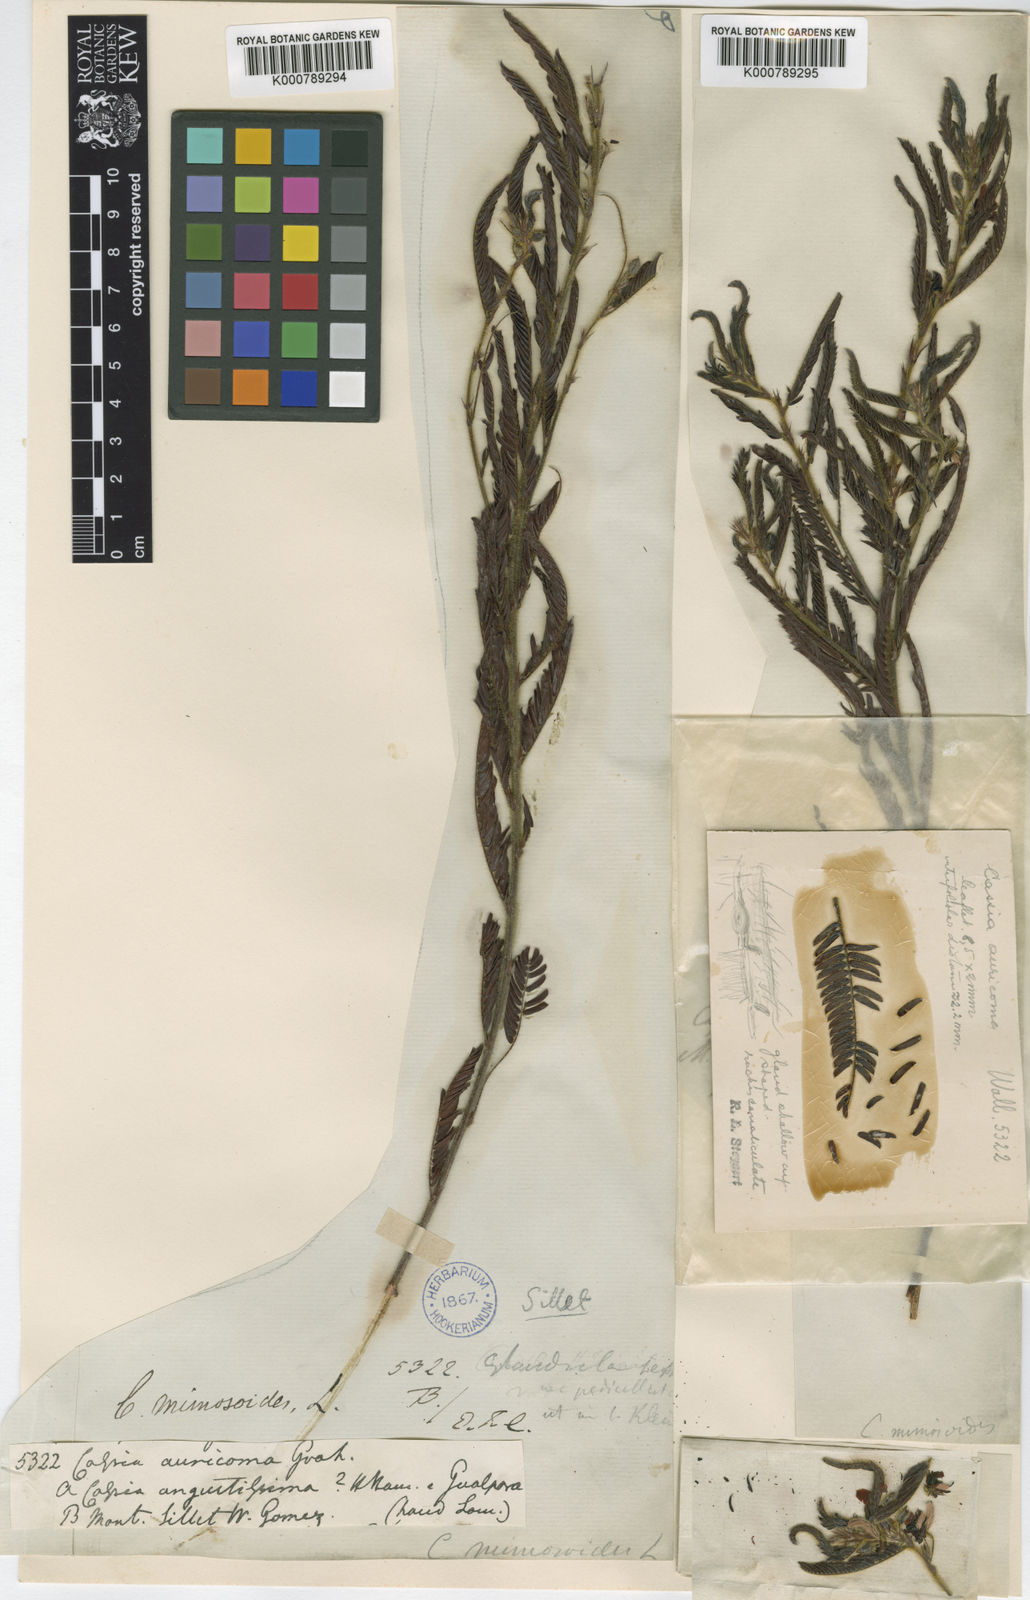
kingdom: Plantae
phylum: Tracheophyta
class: Magnoliopsida
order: Fabales
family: Fabaceae
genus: Chamaecrista
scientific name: Chamaecrista mimosoides
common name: Fish-bone cassia
